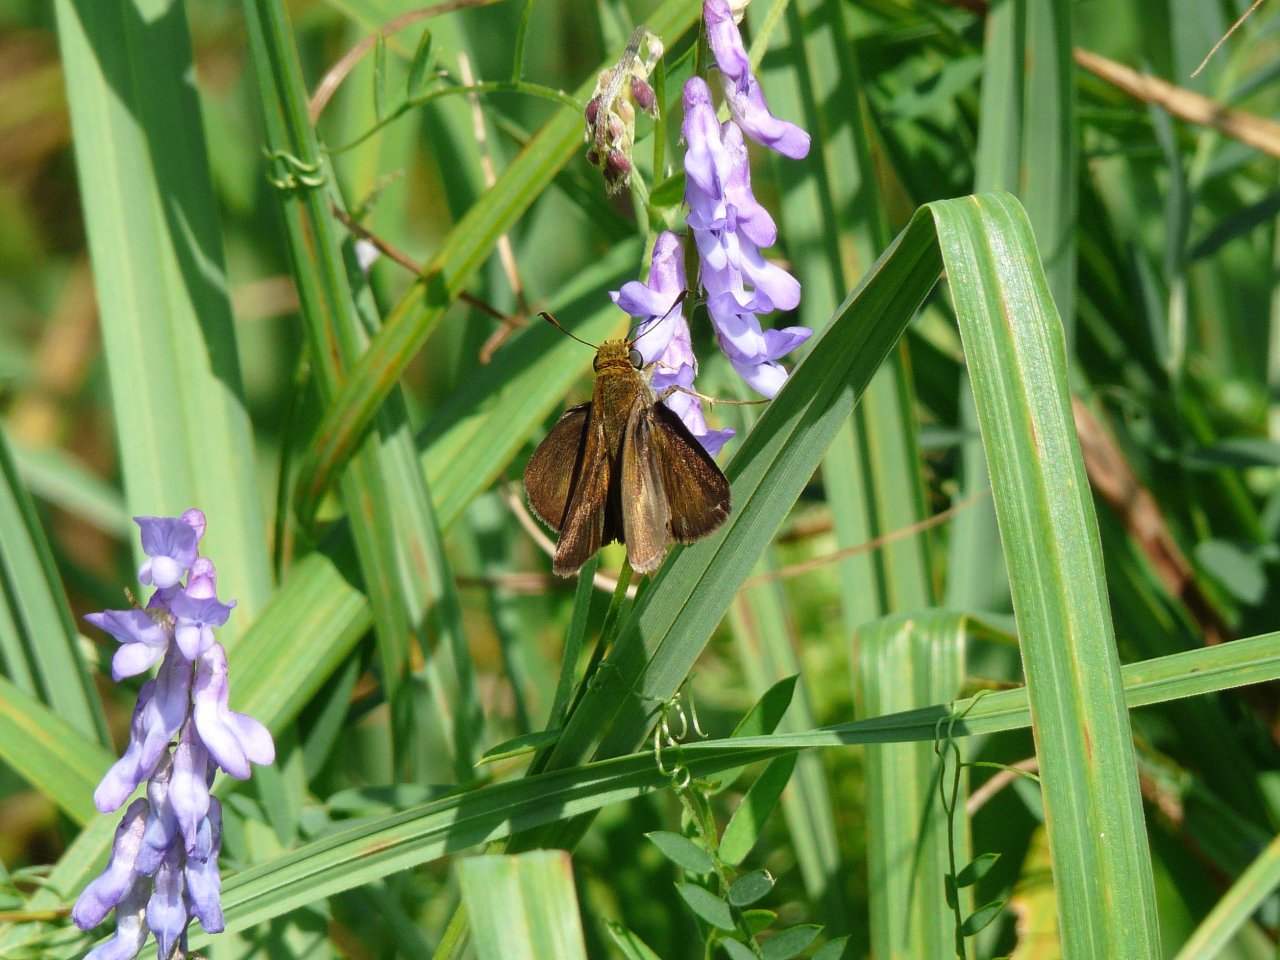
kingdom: Animalia
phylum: Arthropoda
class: Insecta
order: Lepidoptera
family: Hesperiidae
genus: Euphyes
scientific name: Euphyes vestris
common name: Dun Skipper
